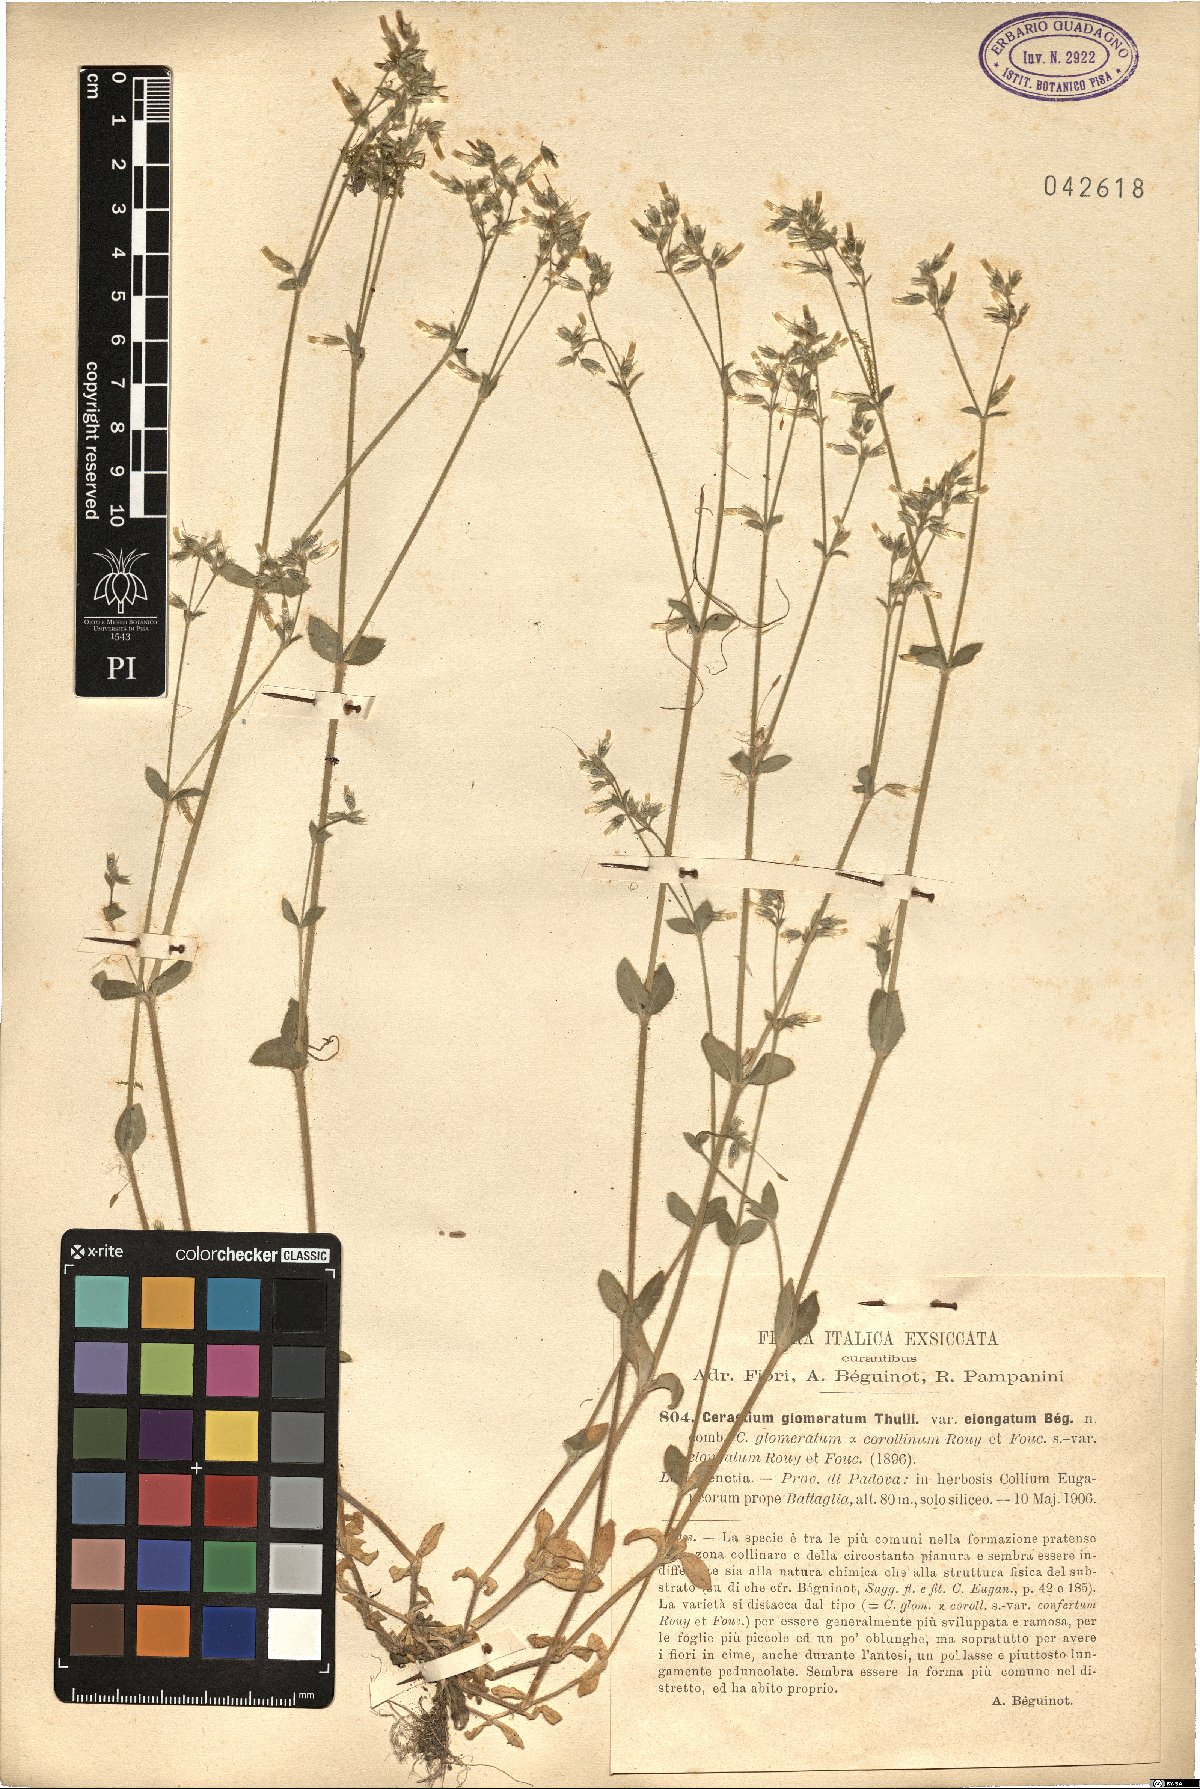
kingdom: Plantae
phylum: Tracheophyta
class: Magnoliopsida
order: Caryophyllales
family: Caryophyllaceae
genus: Cerastium
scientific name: Cerastium glomeratum
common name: Sticky chickweed
